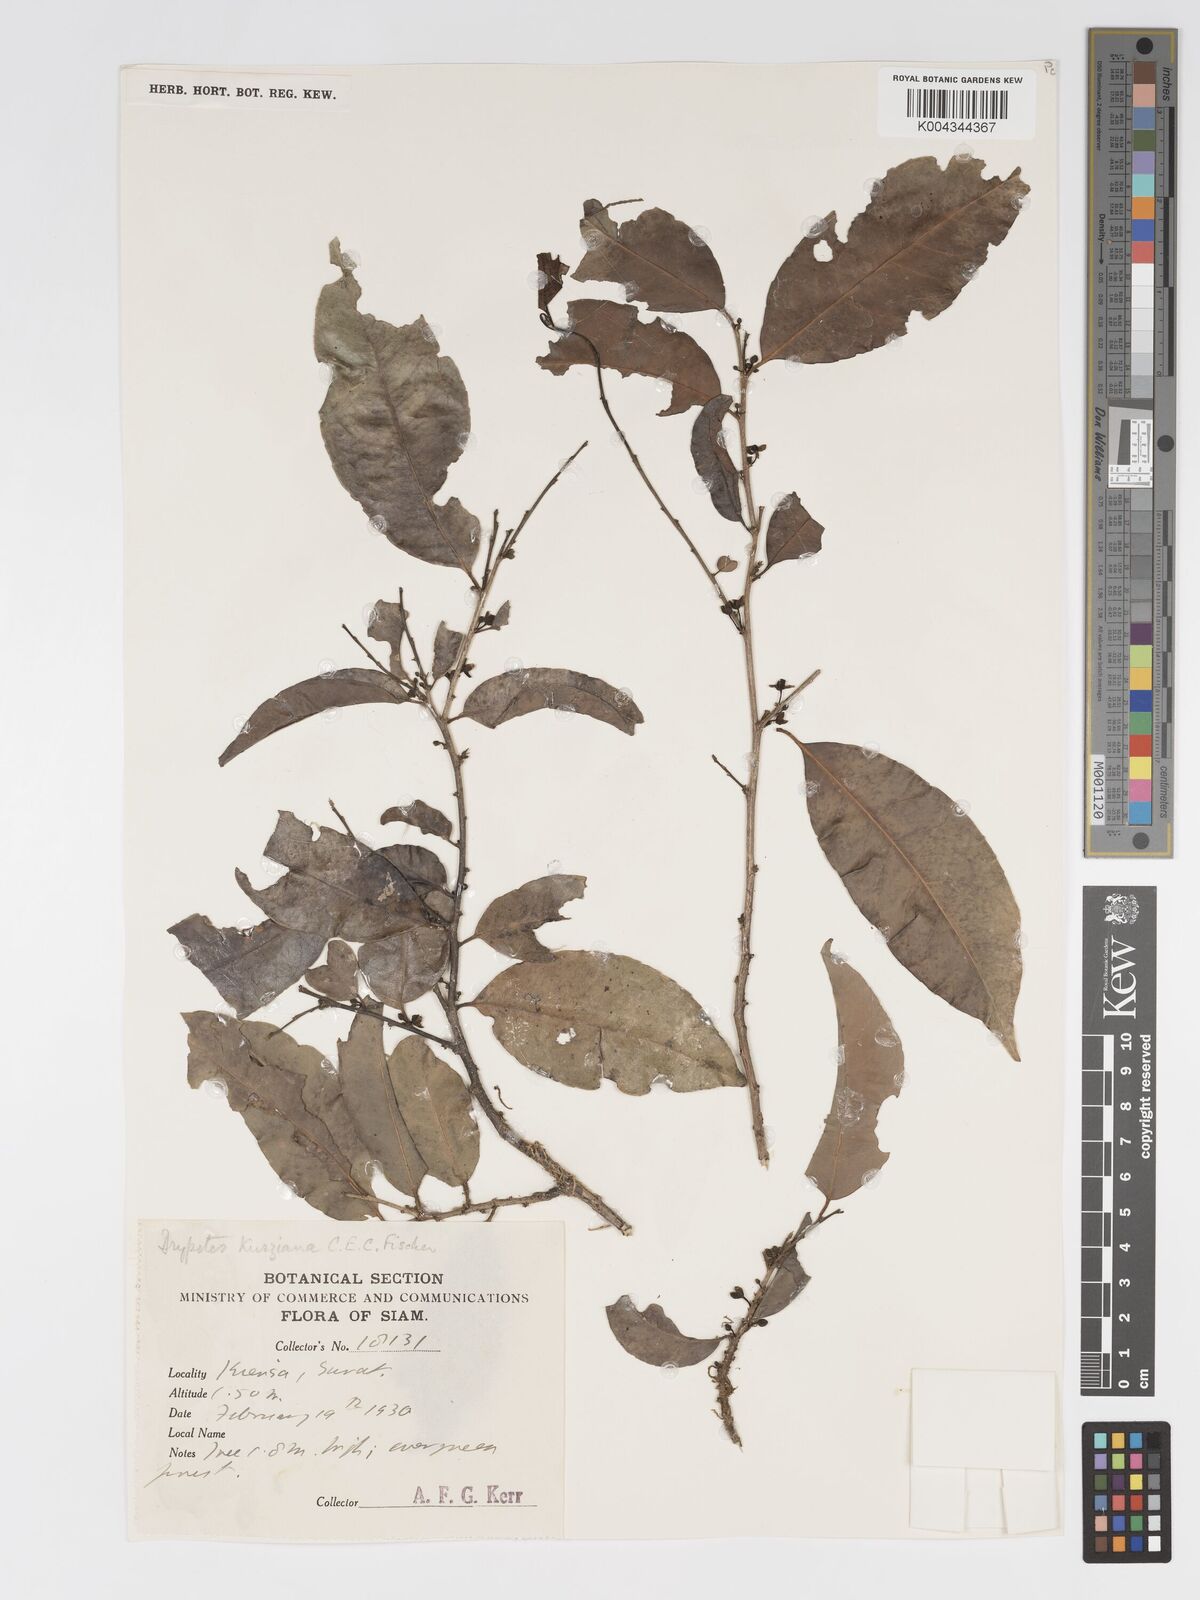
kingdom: Plantae
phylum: Tracheophyta
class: Magnoliopsida
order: Malpighiales
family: Putranjivaceae
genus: Drypetes
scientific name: Drypetes cambodica
